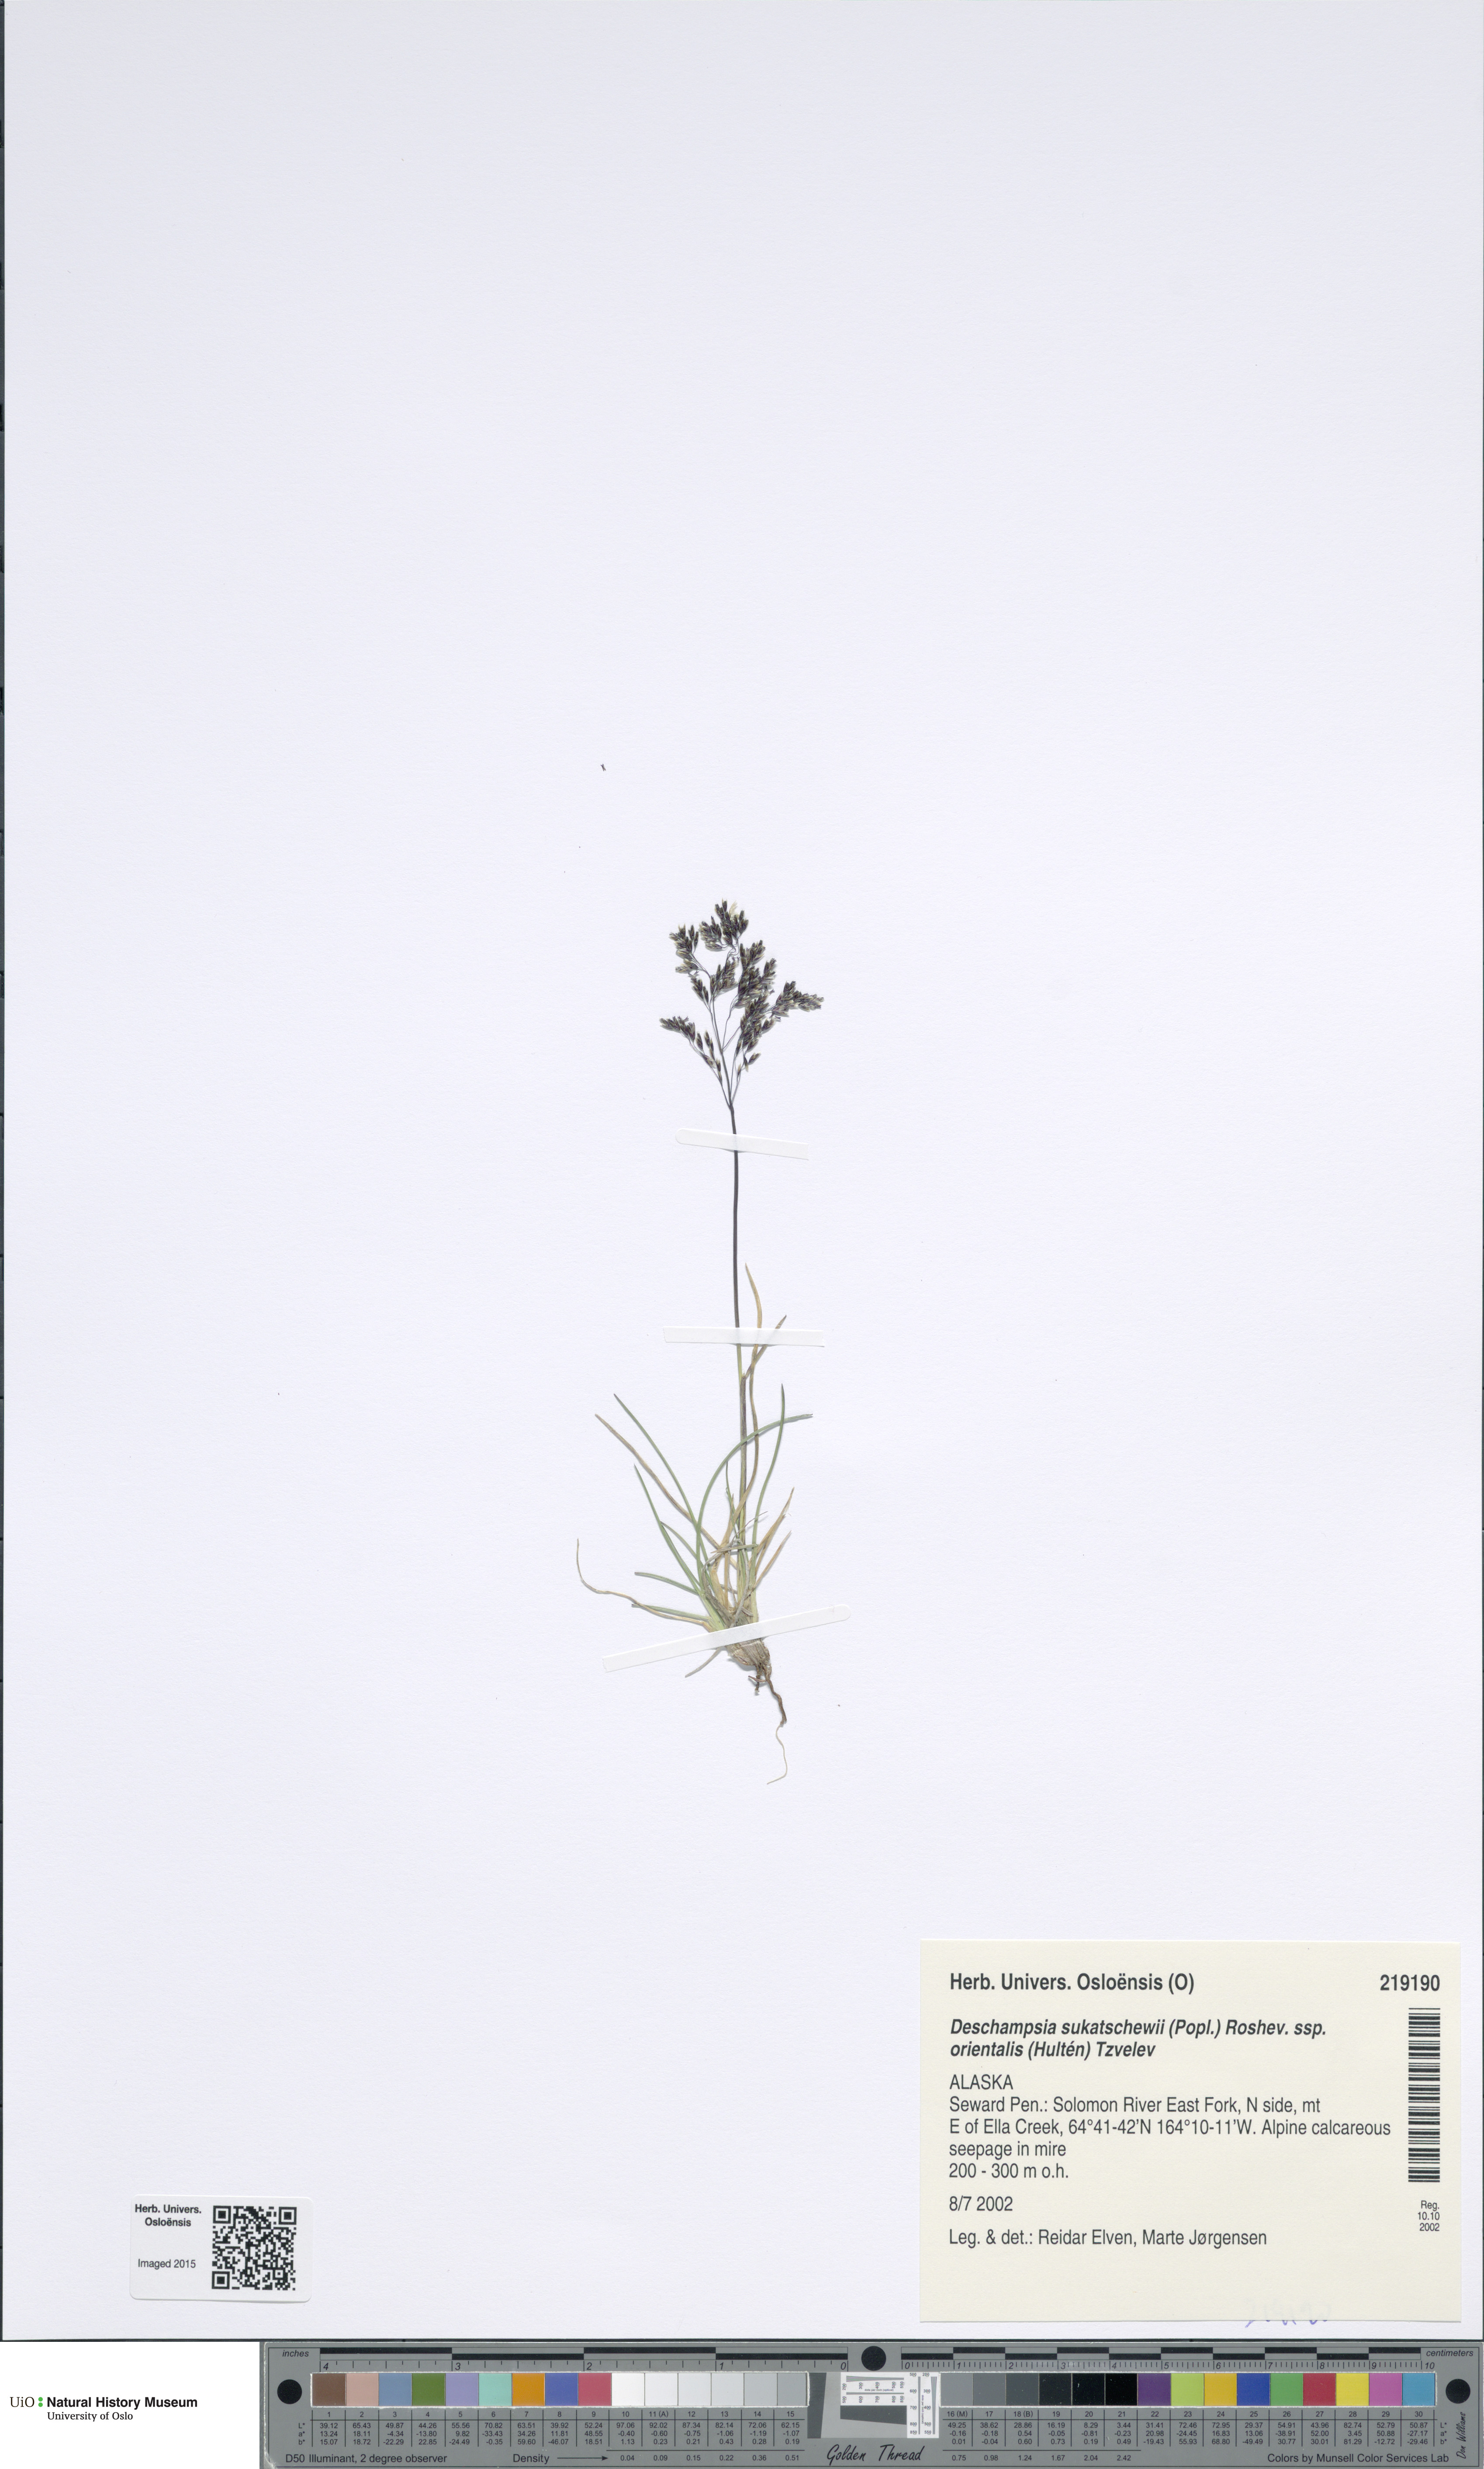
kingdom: Plantae
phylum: Tracheophyta
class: Liliopsida
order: Poales
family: Poaceae
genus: Deschampsia
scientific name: Deschampsia cespitosa
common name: Tufted hair-grass
